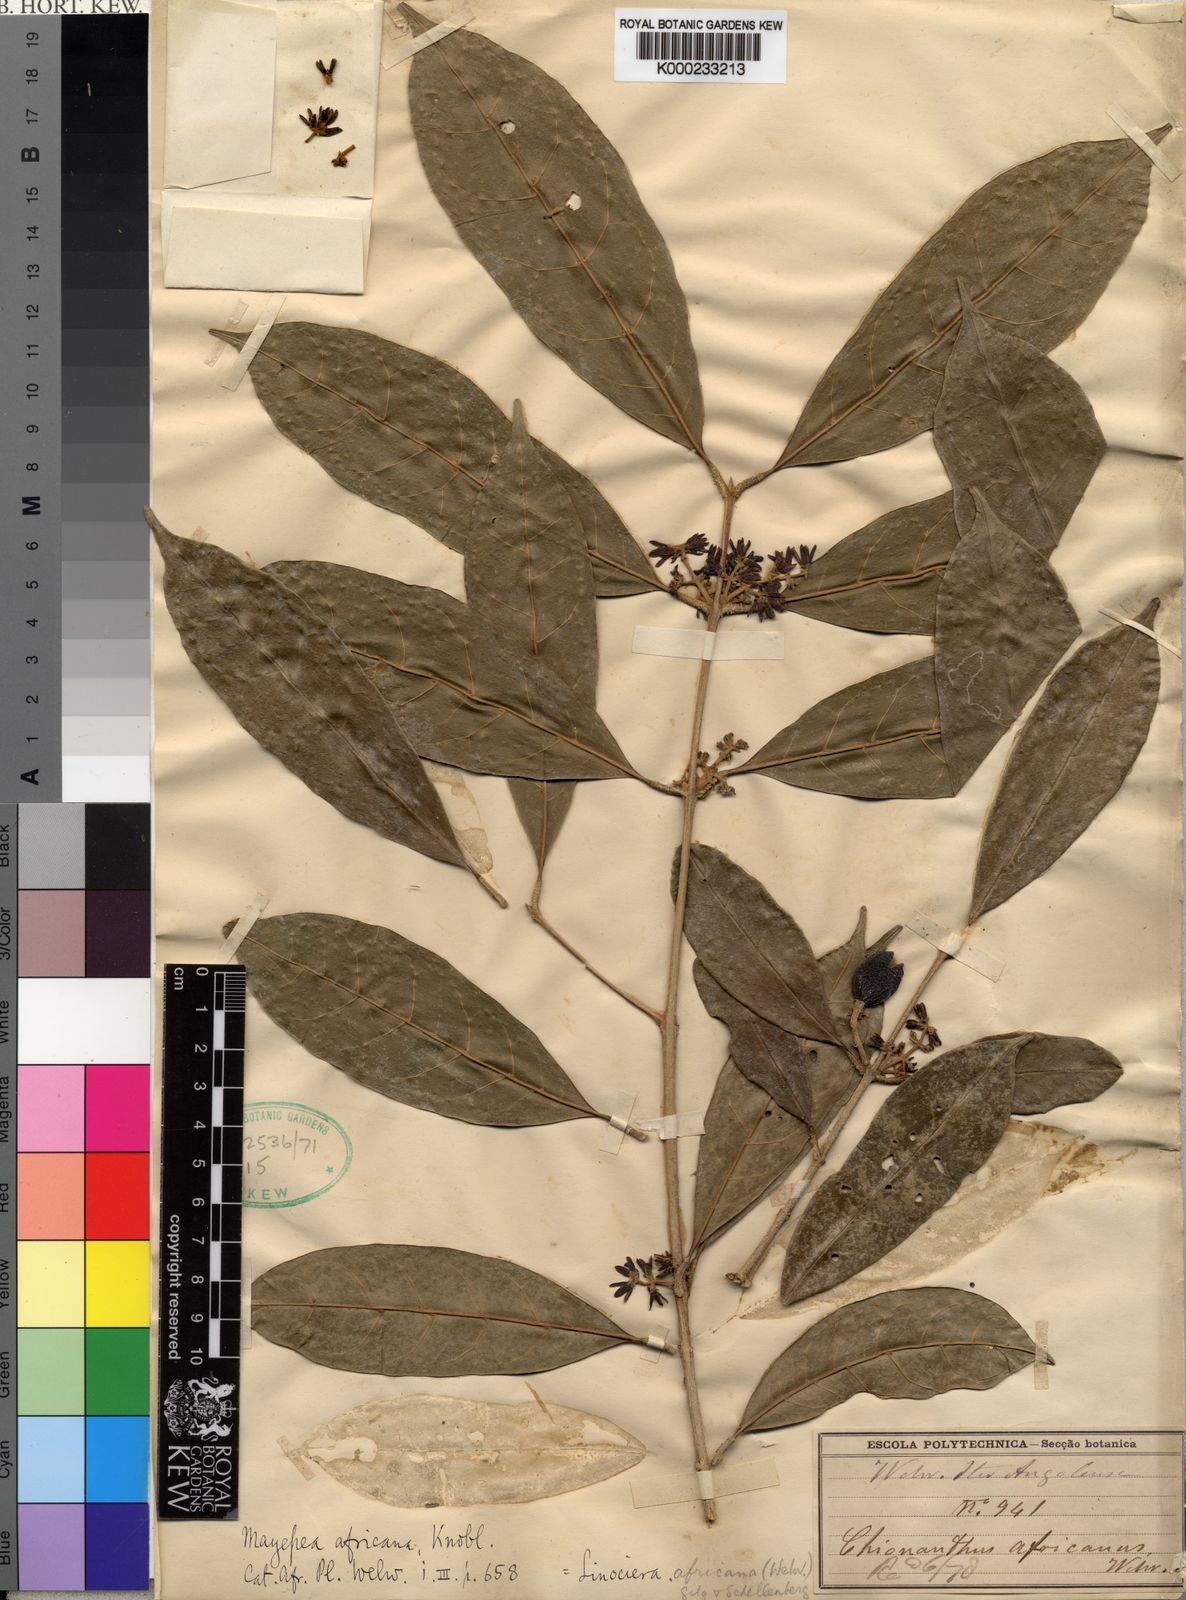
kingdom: Plantae
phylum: Tracheophyta
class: Magnoliopsida
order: Lamiales
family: Oleaceae
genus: Noronhia
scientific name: Noronhia africana
